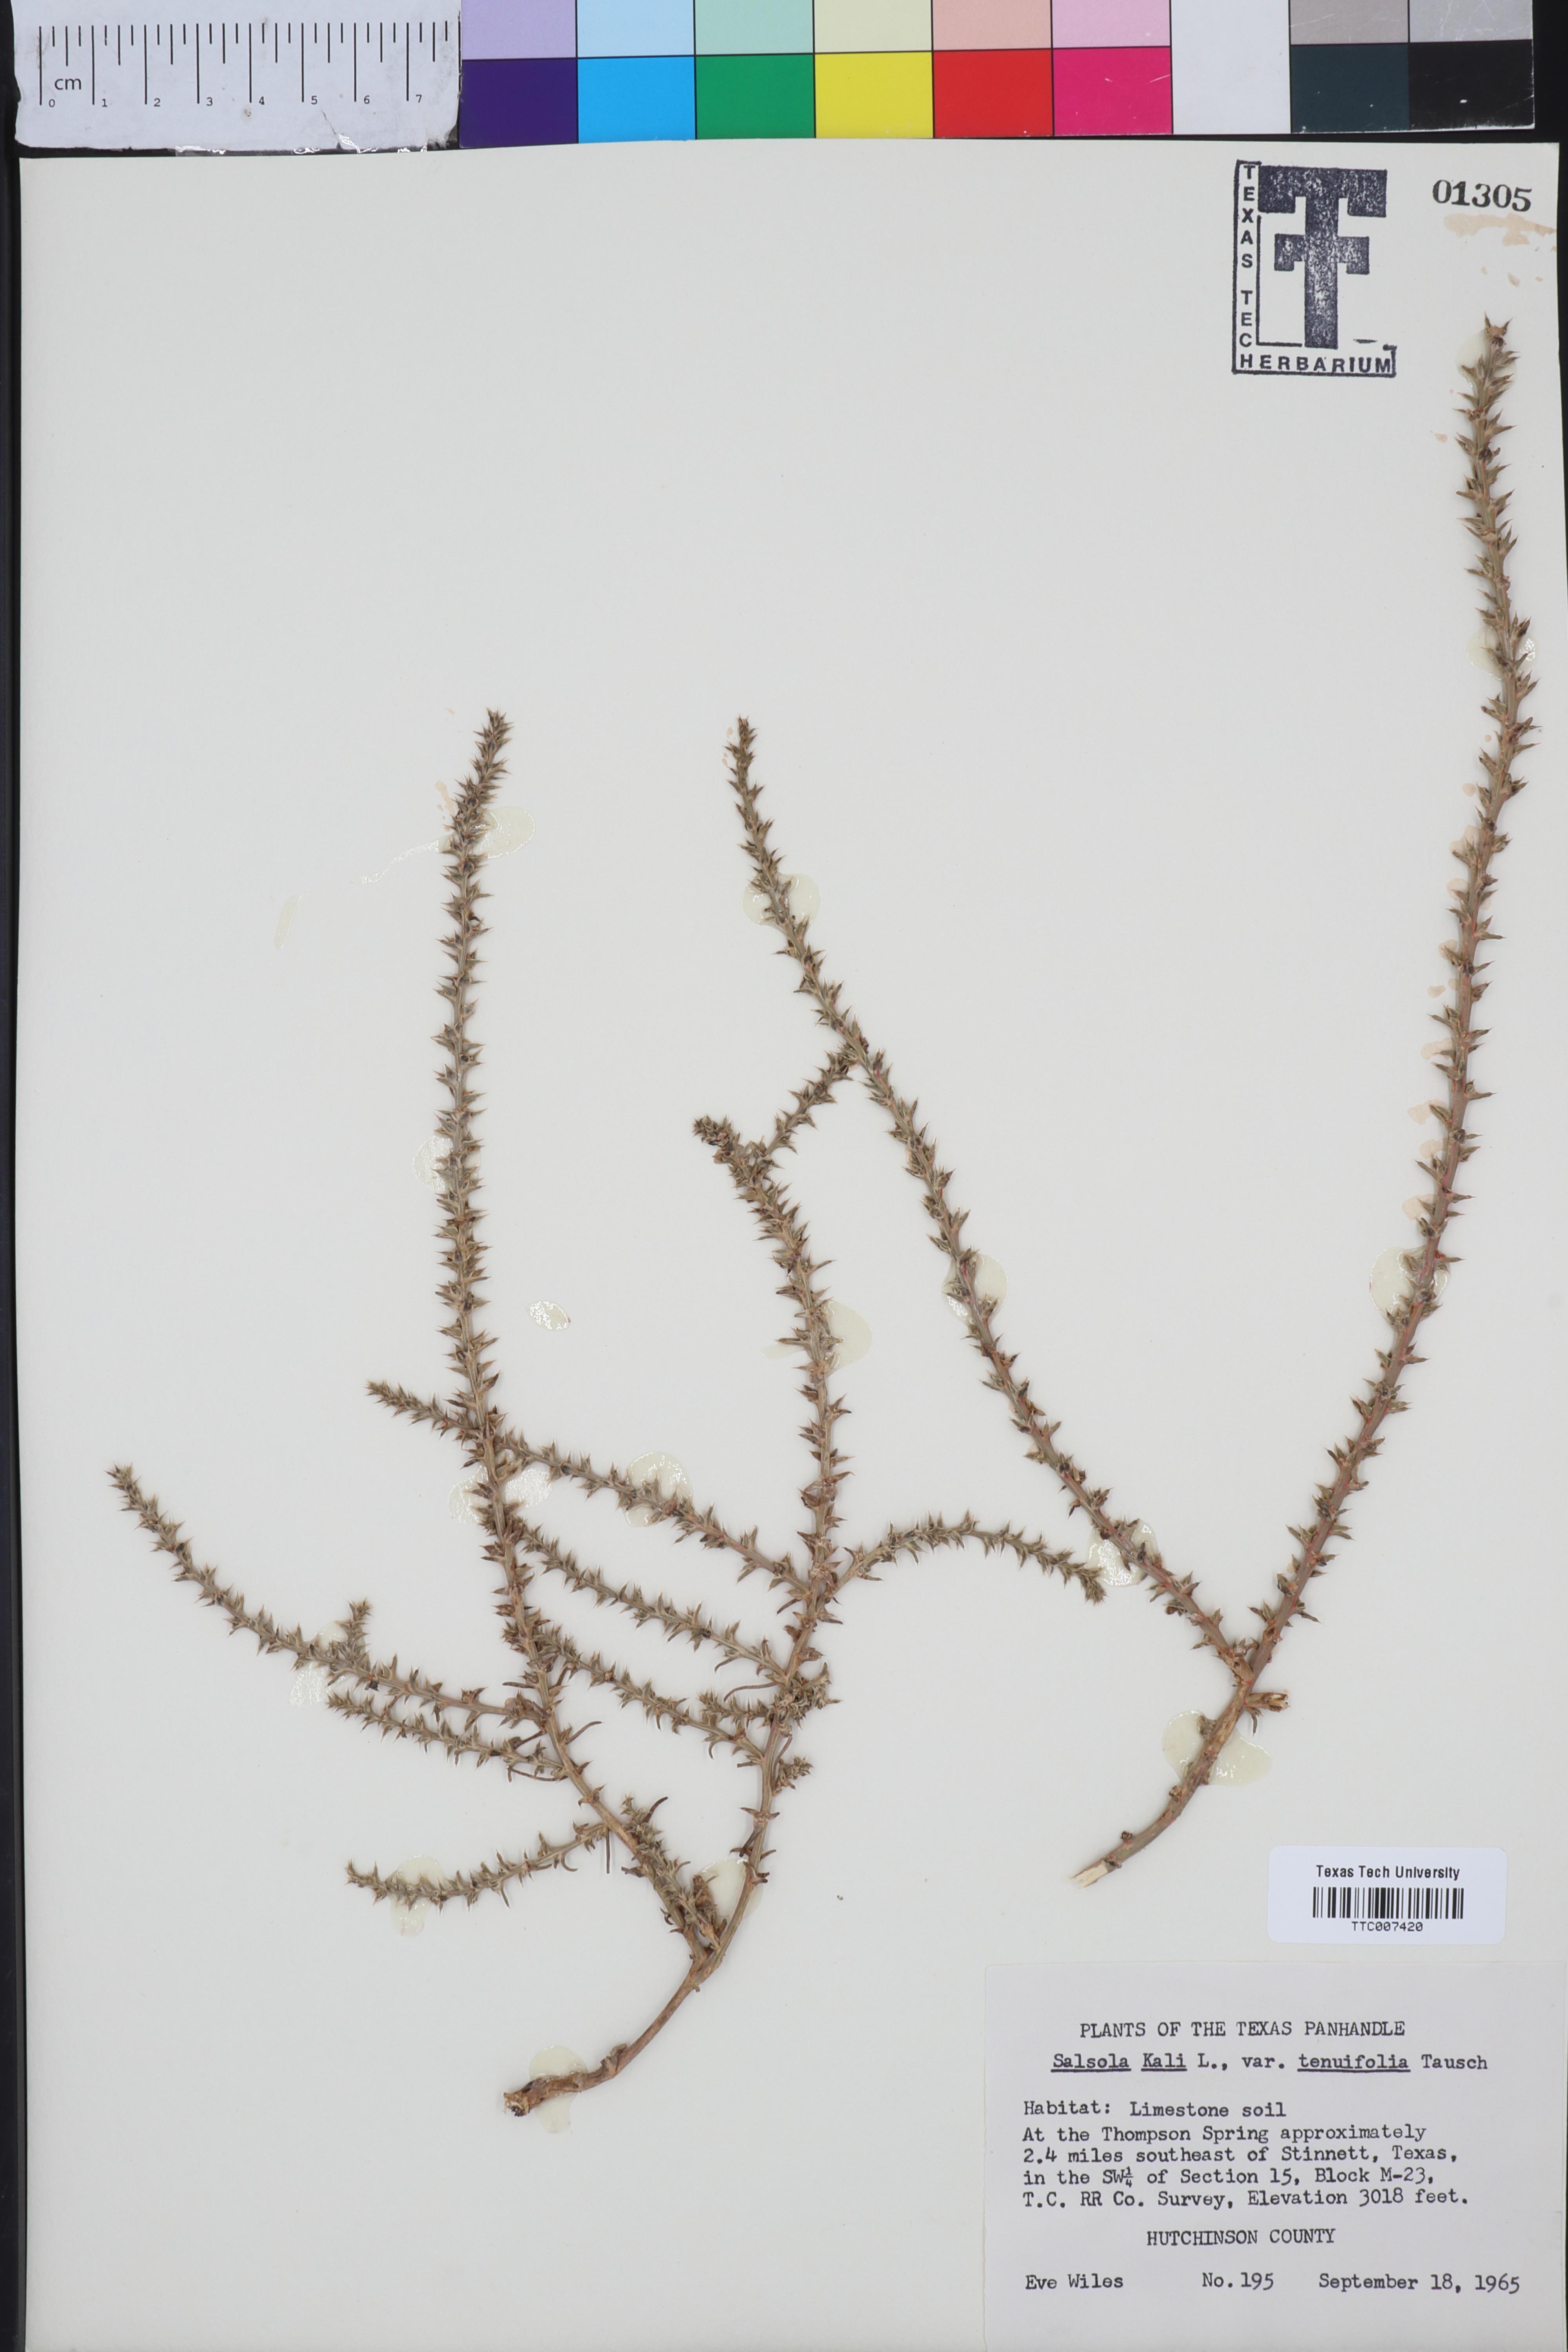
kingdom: Plantae
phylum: Tracheophyta
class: Magnoliopsida
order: Caryophyllales
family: Amaranthaceae
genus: Salsola
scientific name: Salsola tragus
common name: Prickly russian thistle
